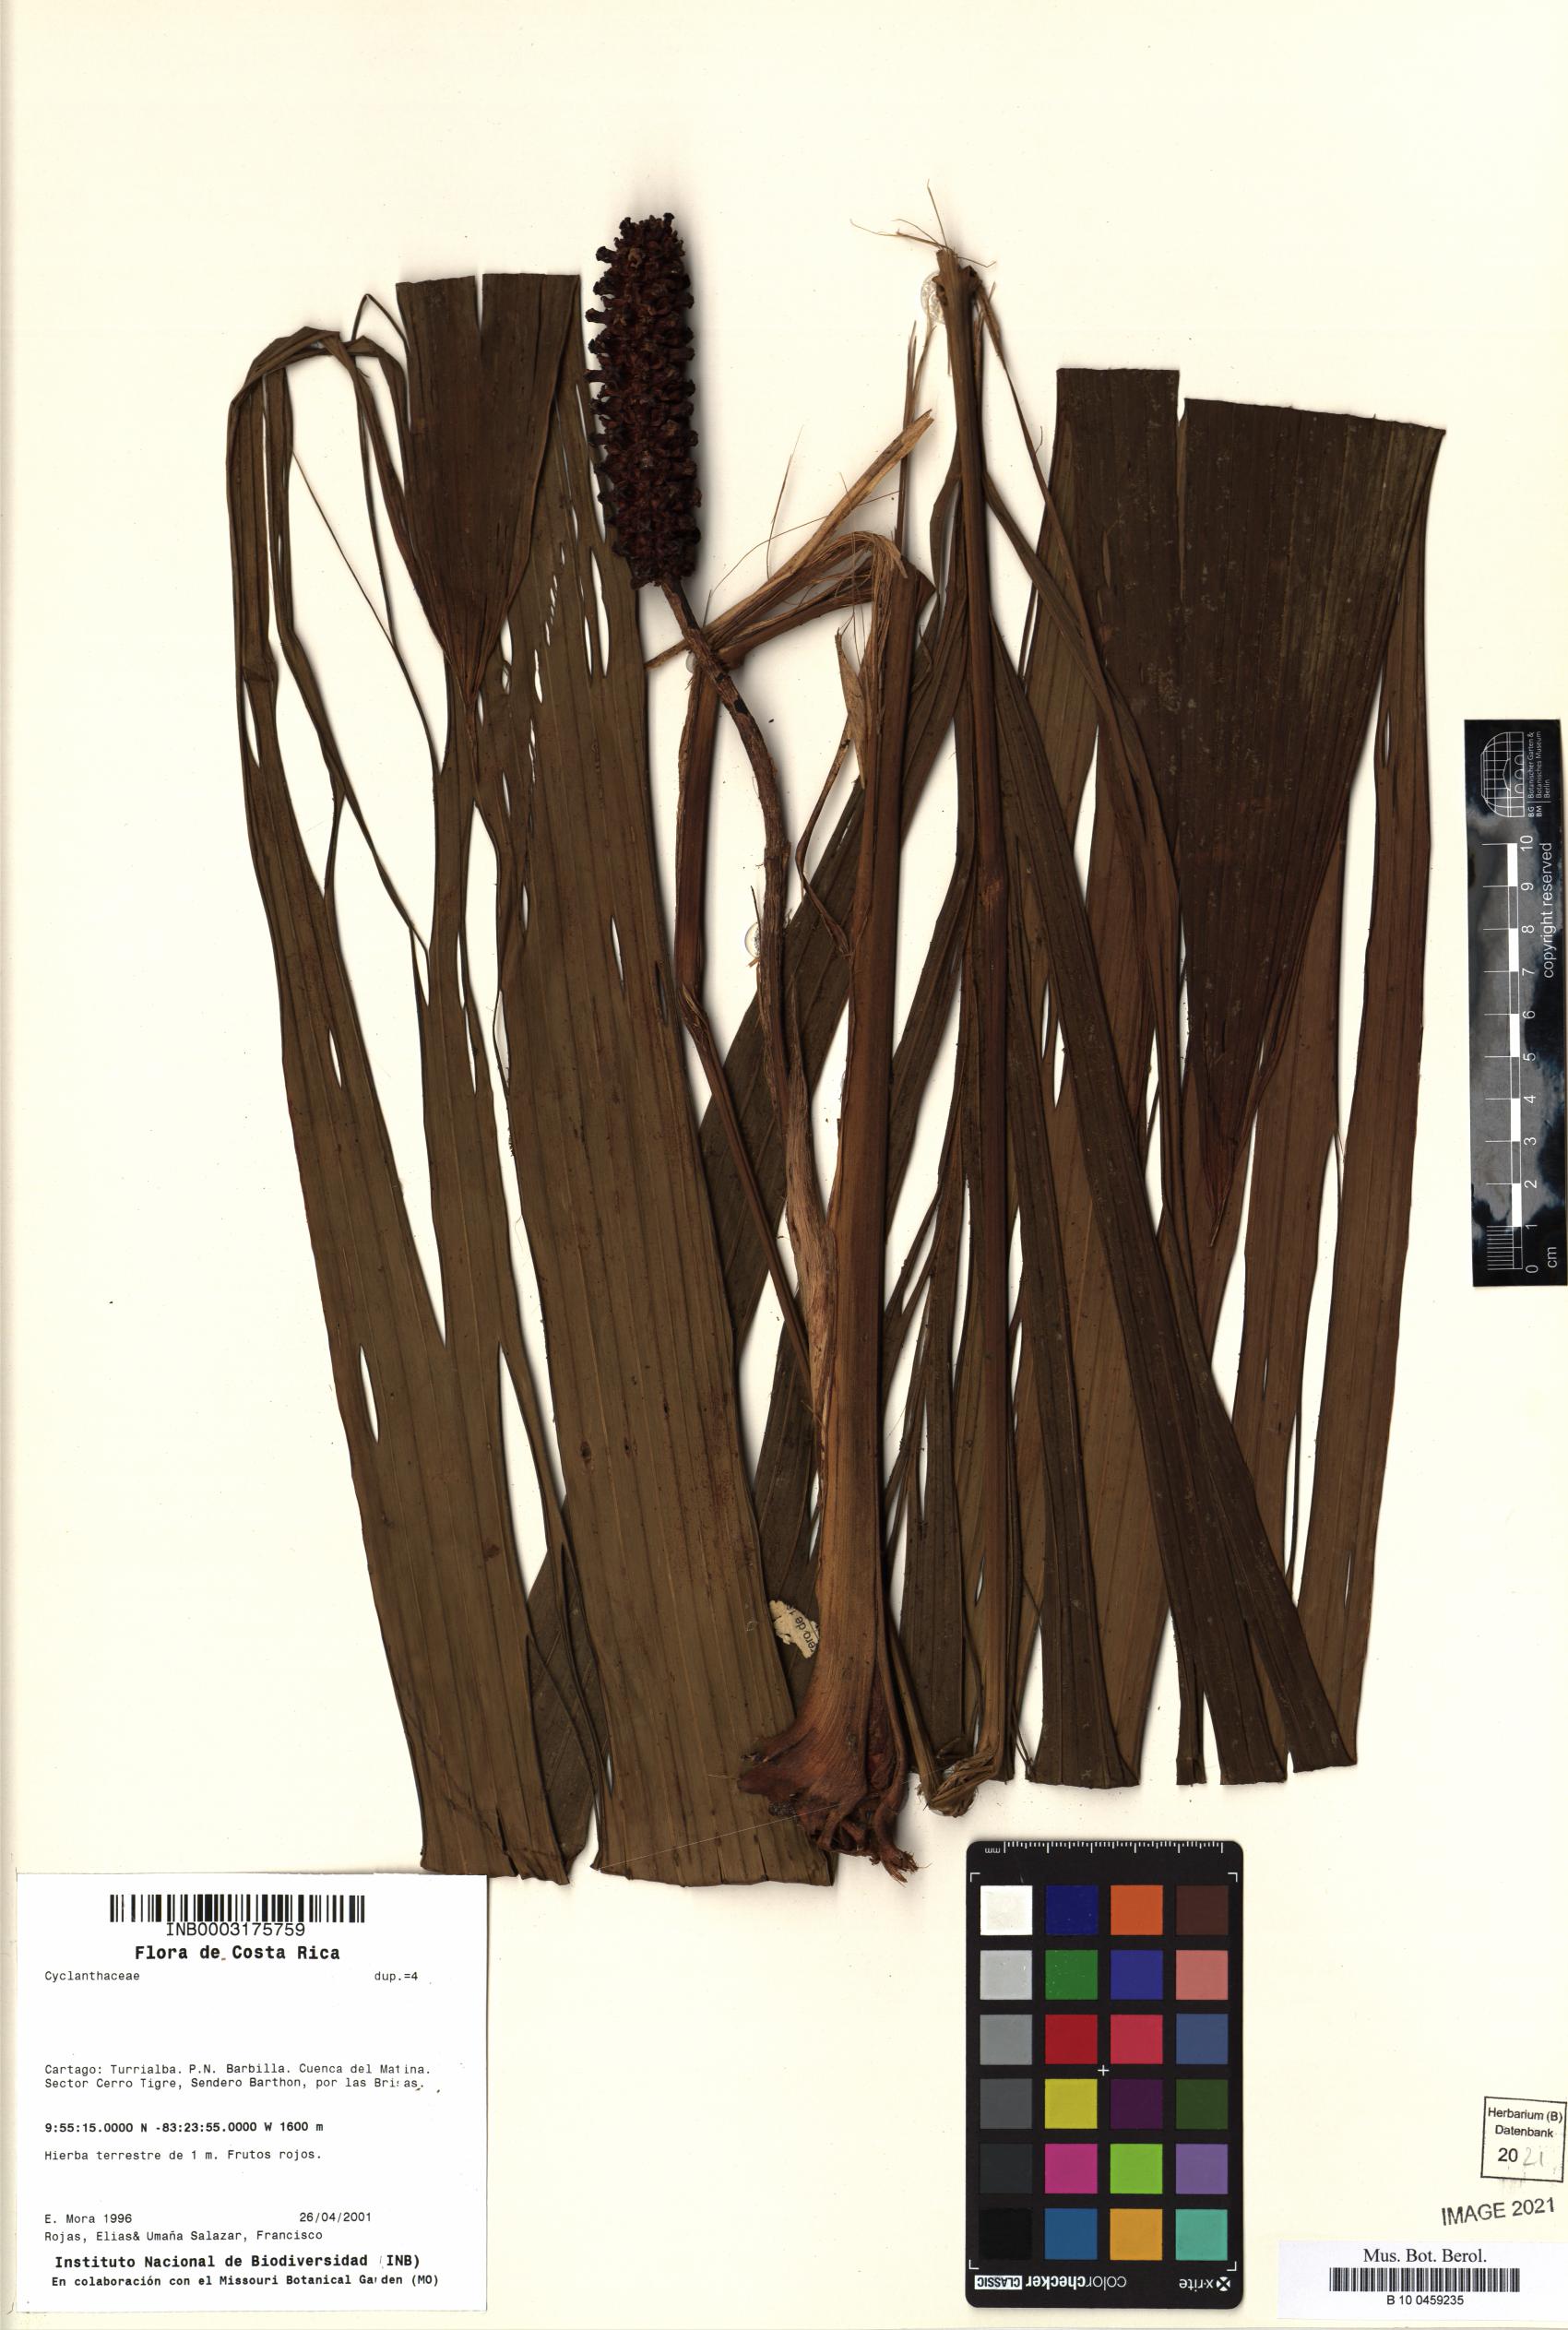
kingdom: Plantae
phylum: Tracheophyta
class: Liliopsida
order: Pandanales
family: Cyclanthaceae
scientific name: Cyclanthaceae
